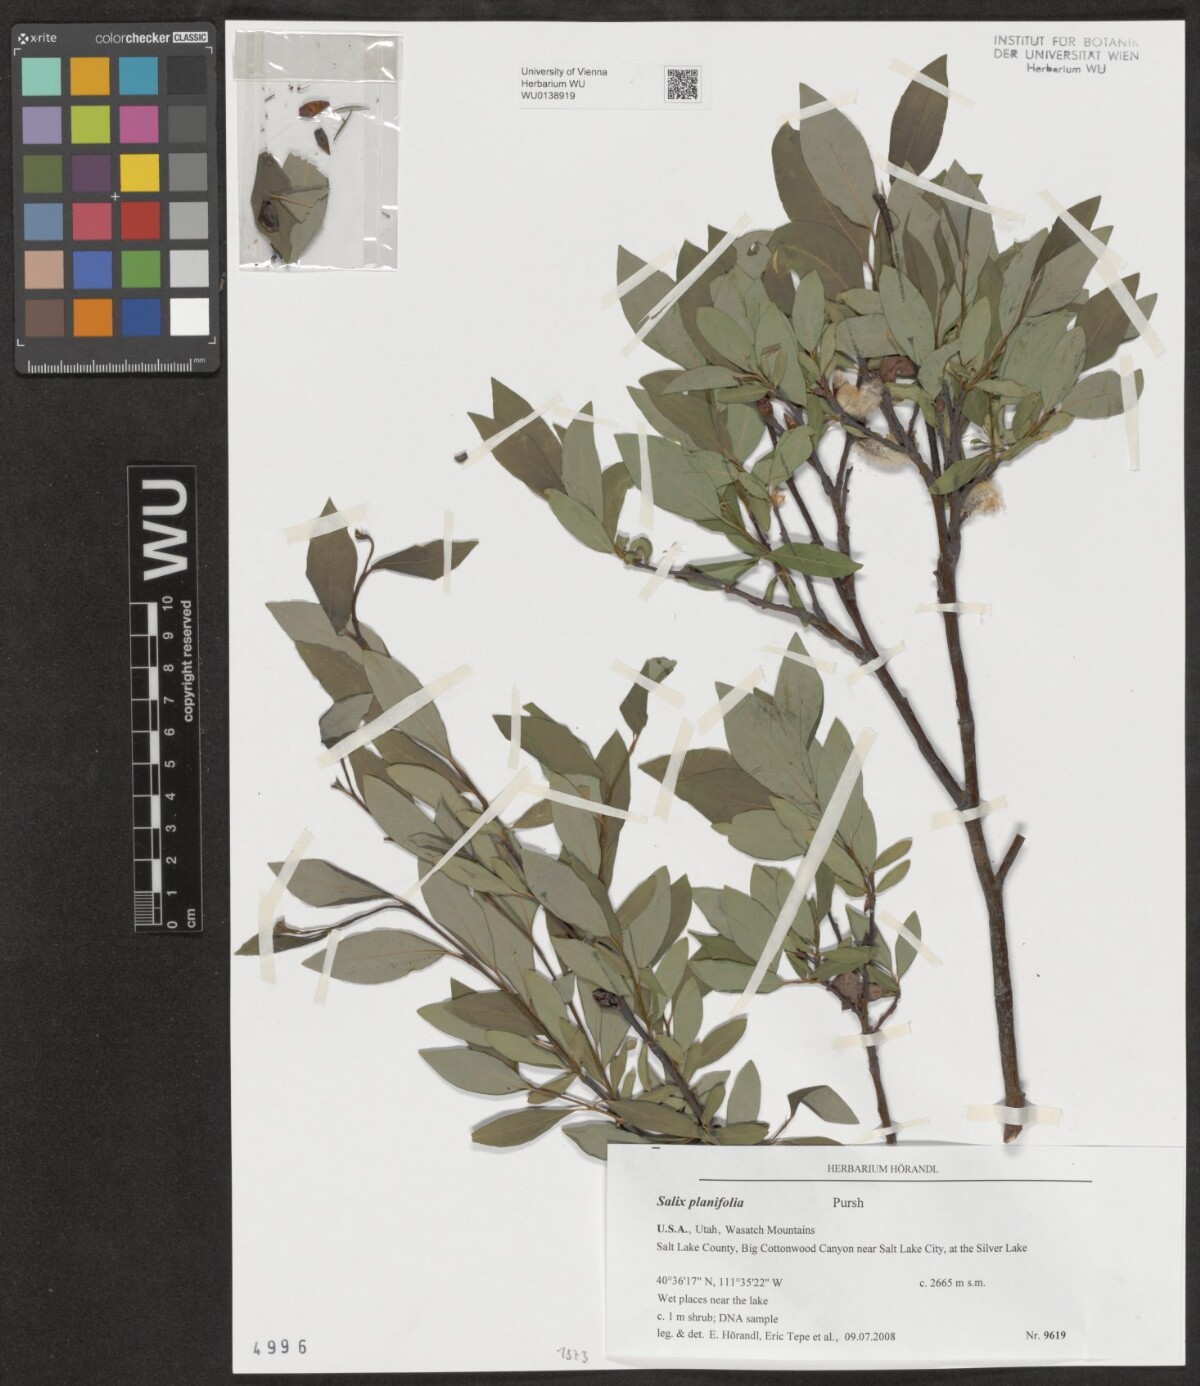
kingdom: Plantae
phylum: Tracheophyta
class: Magnoliopsida
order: Malpighiales
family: Salicaceae
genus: Salix
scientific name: Salix planifolia
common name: Mountain willow
